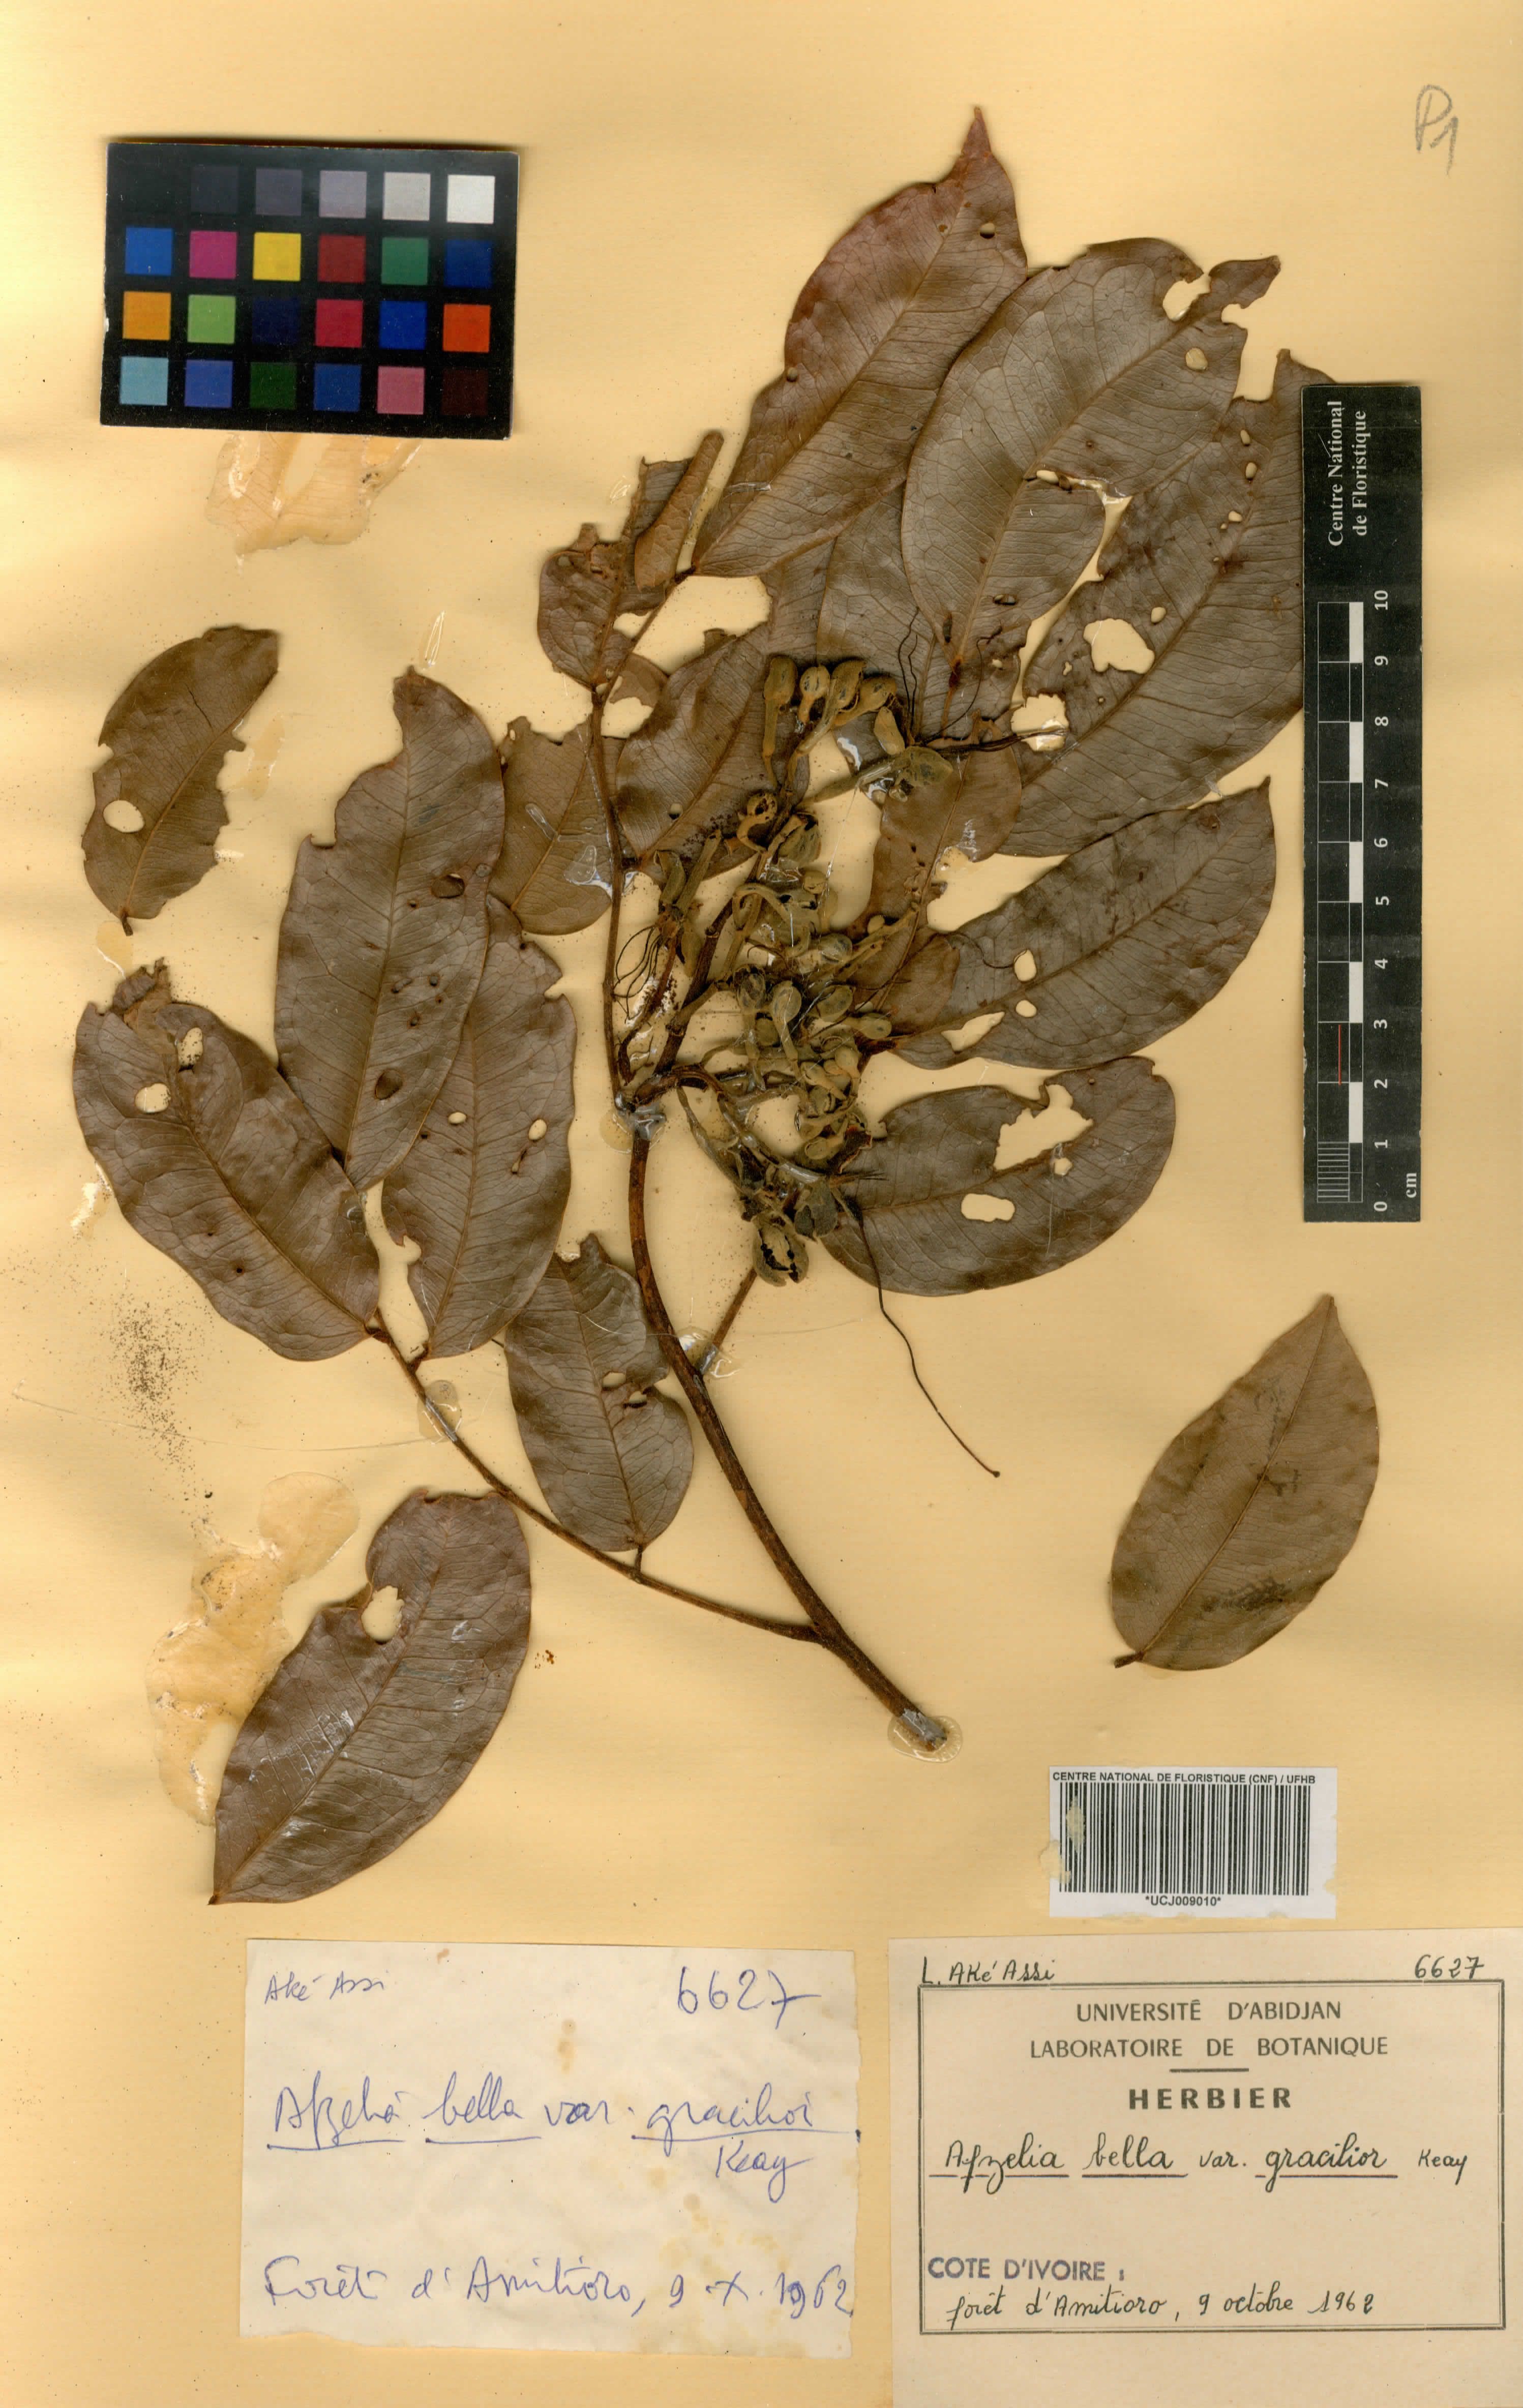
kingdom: Plantae
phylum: Tracheophyta
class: Magnoliopsida
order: Fabales
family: Fabaceae
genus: Afzelia
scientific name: Afzelia bella
